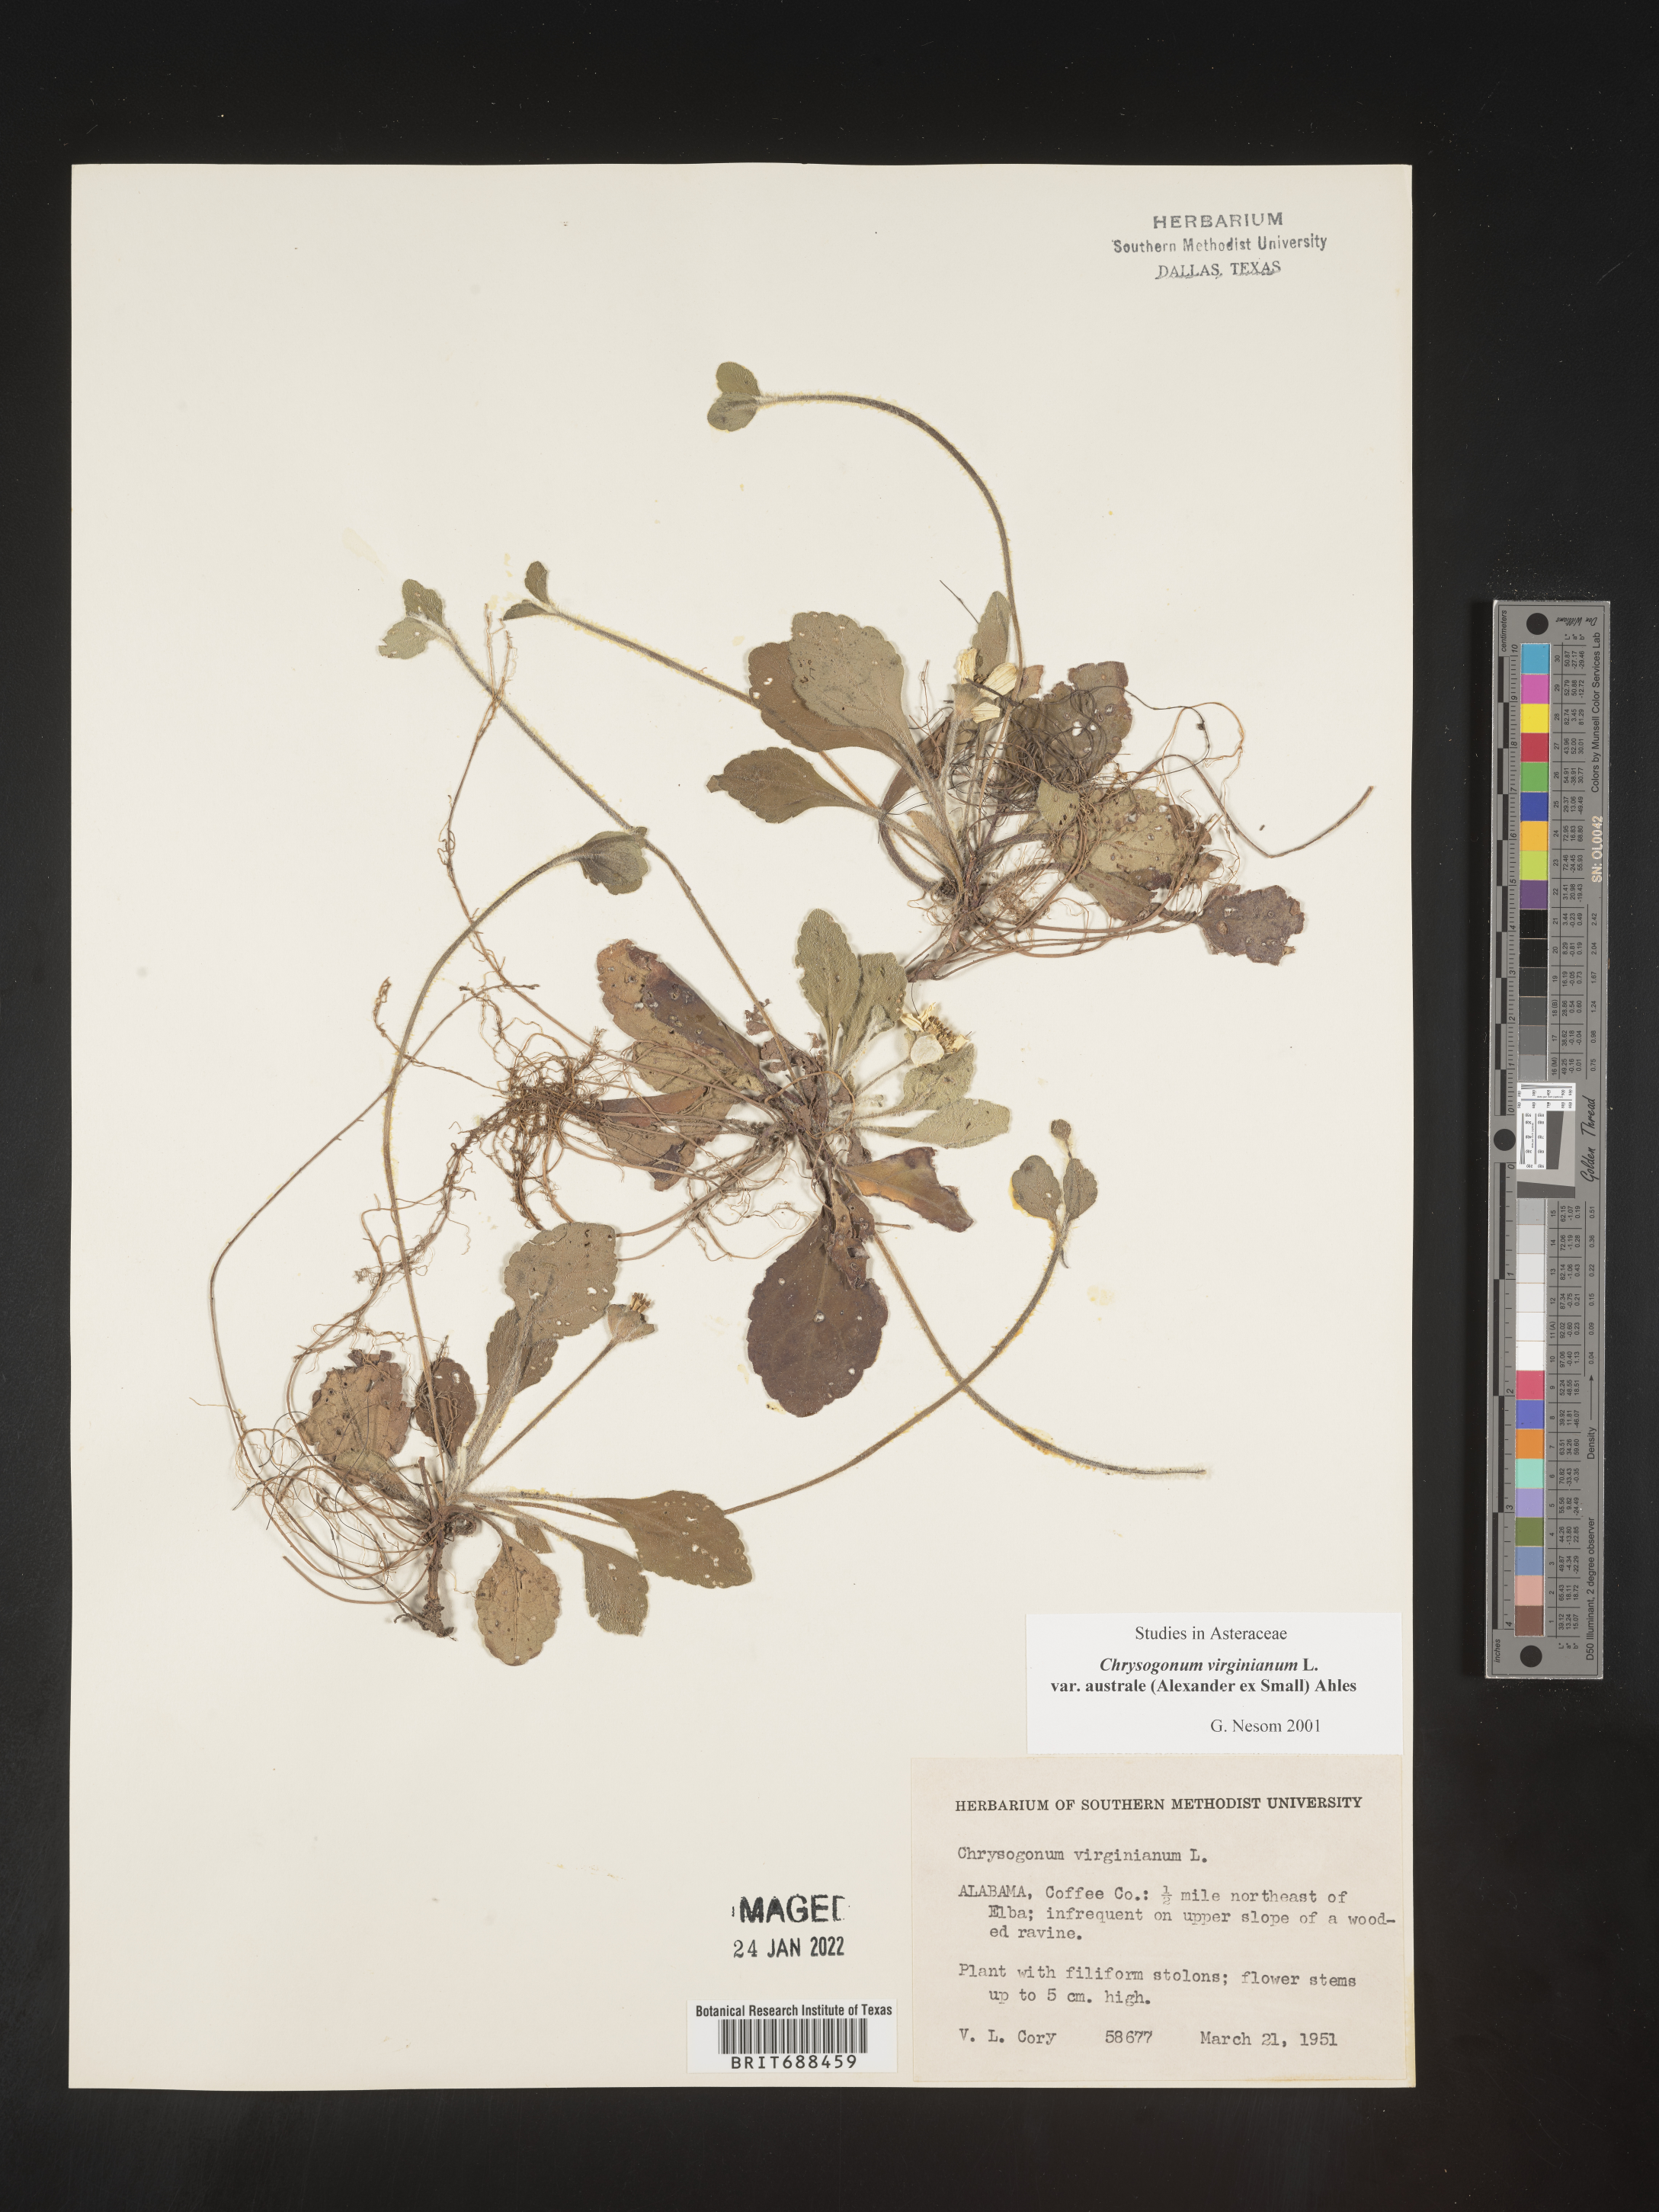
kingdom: Plantae
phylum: Tracheophyta
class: Magnoliopsida
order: Asterales
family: Asteraceae
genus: Chrysogonum
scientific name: Chrysogonum virginianum
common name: Golden-knee
